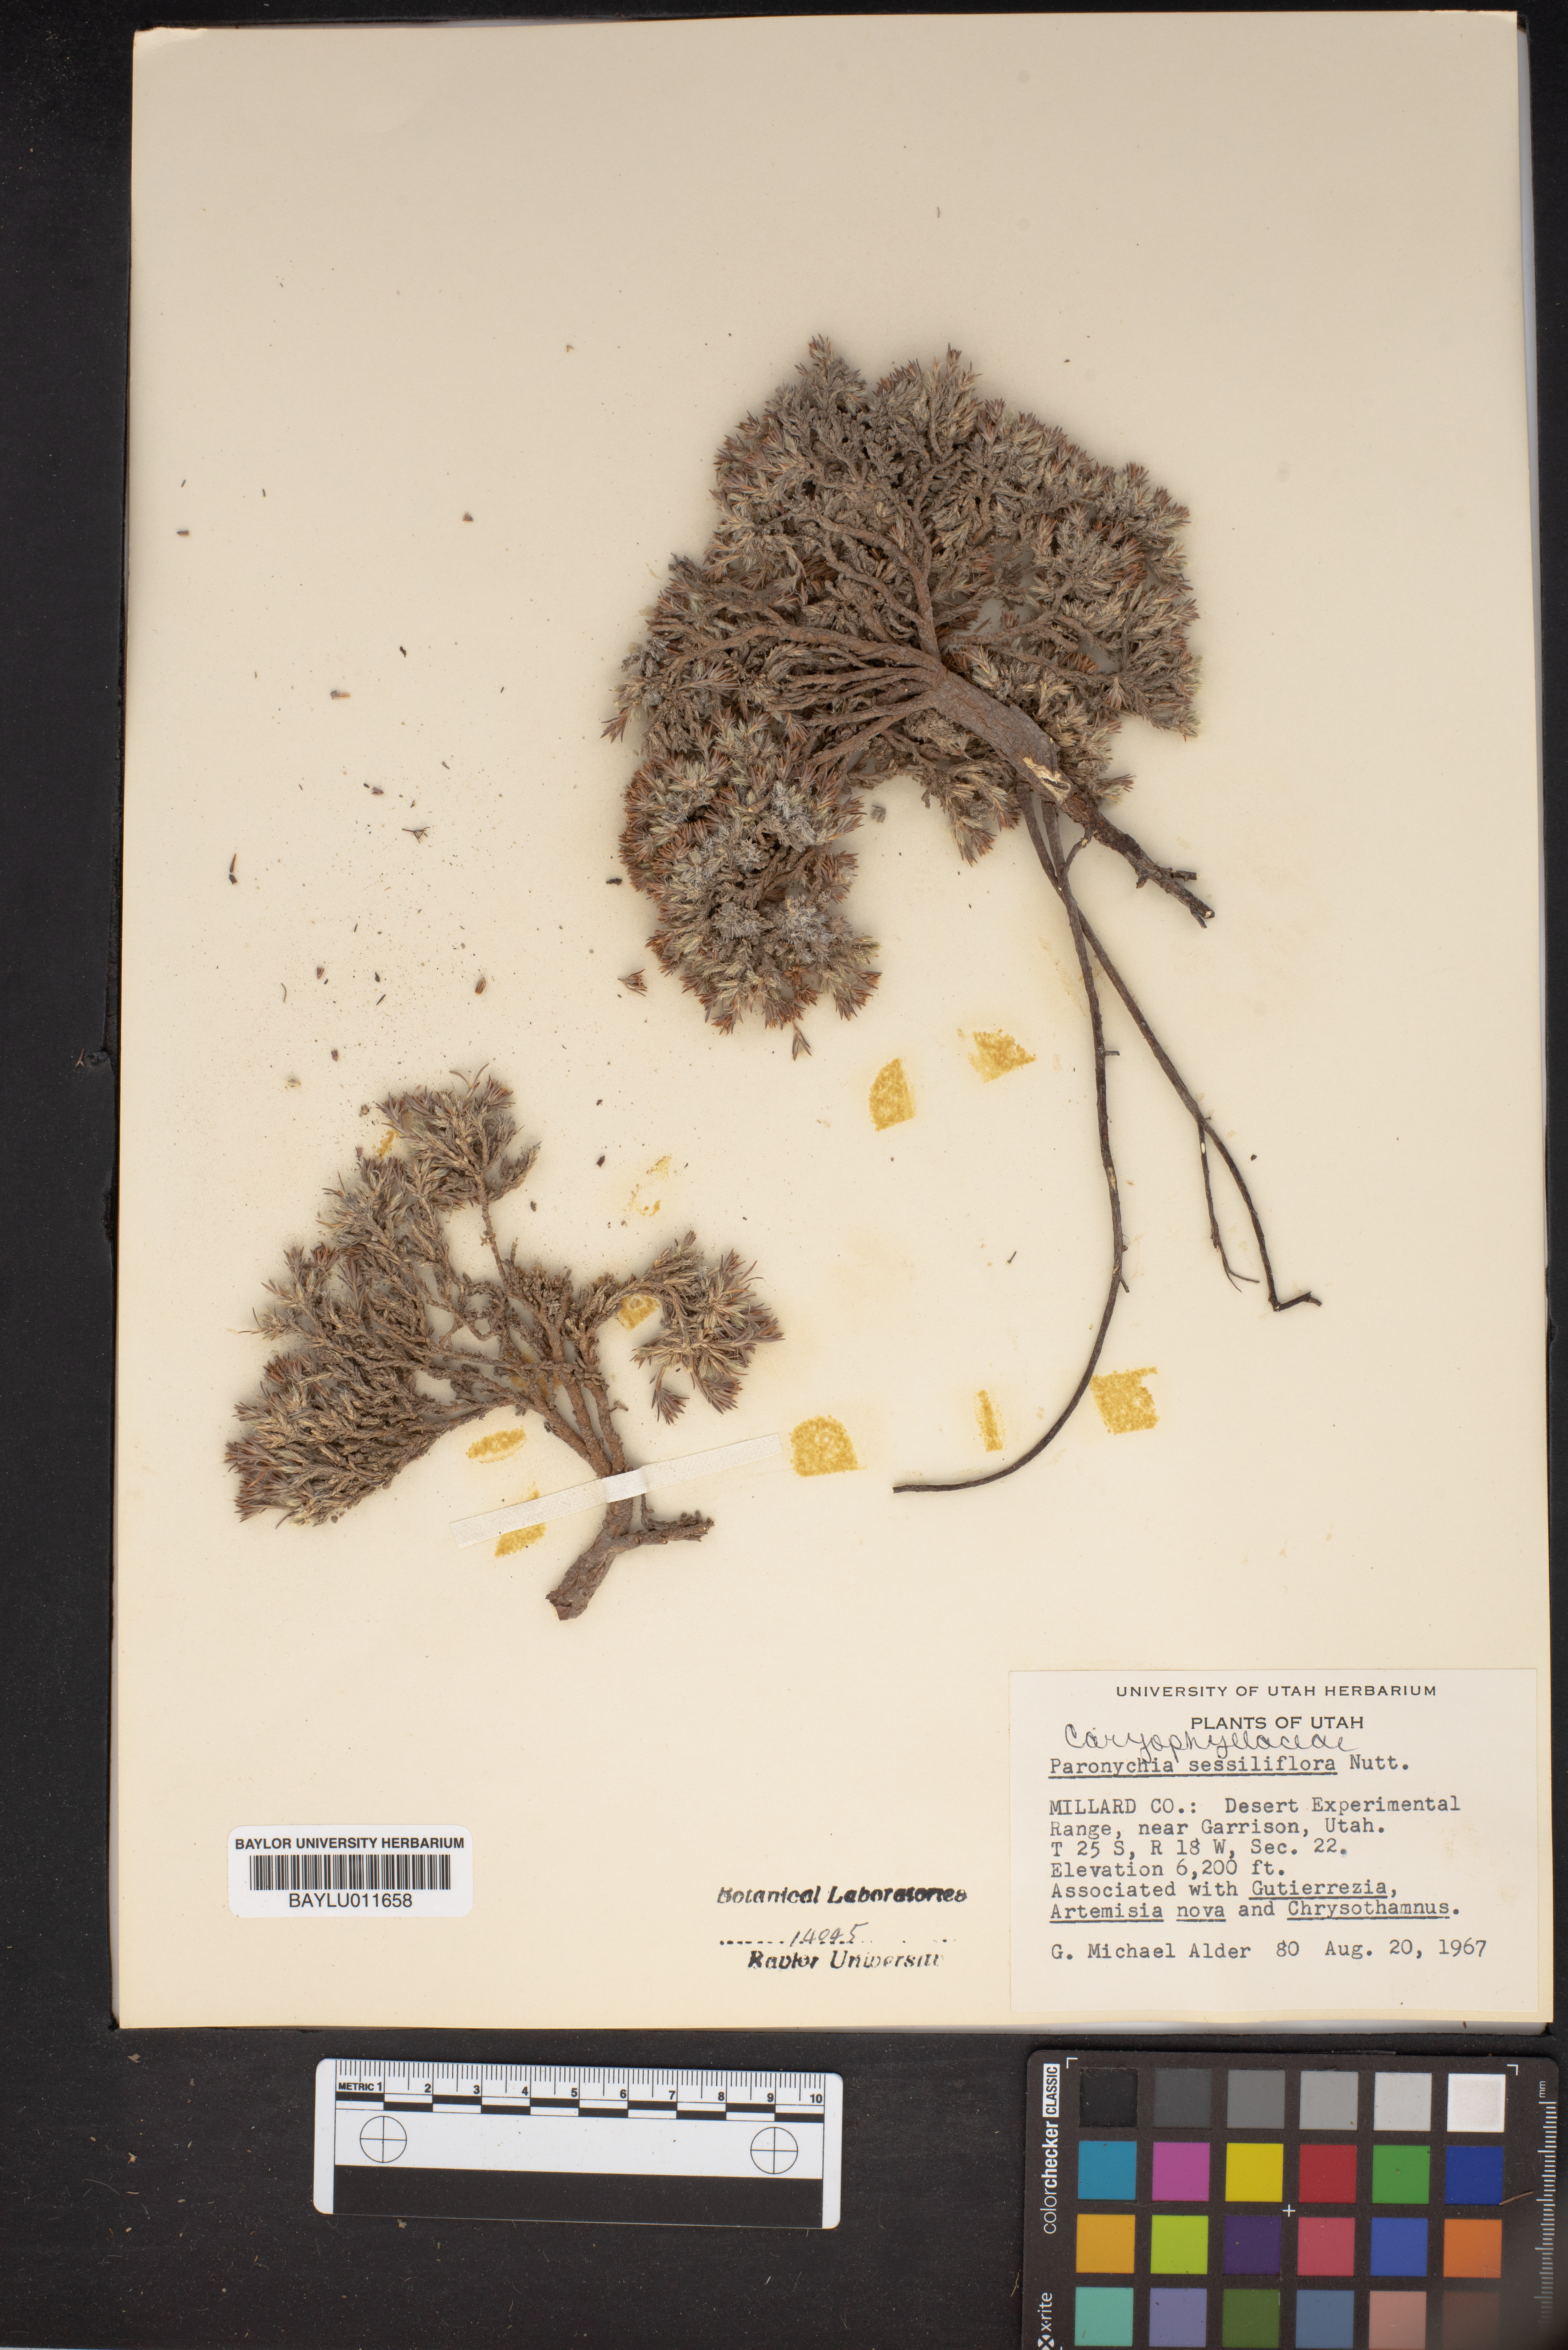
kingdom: Plantae
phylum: Tracheophyta
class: Magnoliopsida
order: Caryophyllales
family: Caryophyllaceae
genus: Paronychia
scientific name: Paronychia sessiliflora
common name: Creeping nailwort
